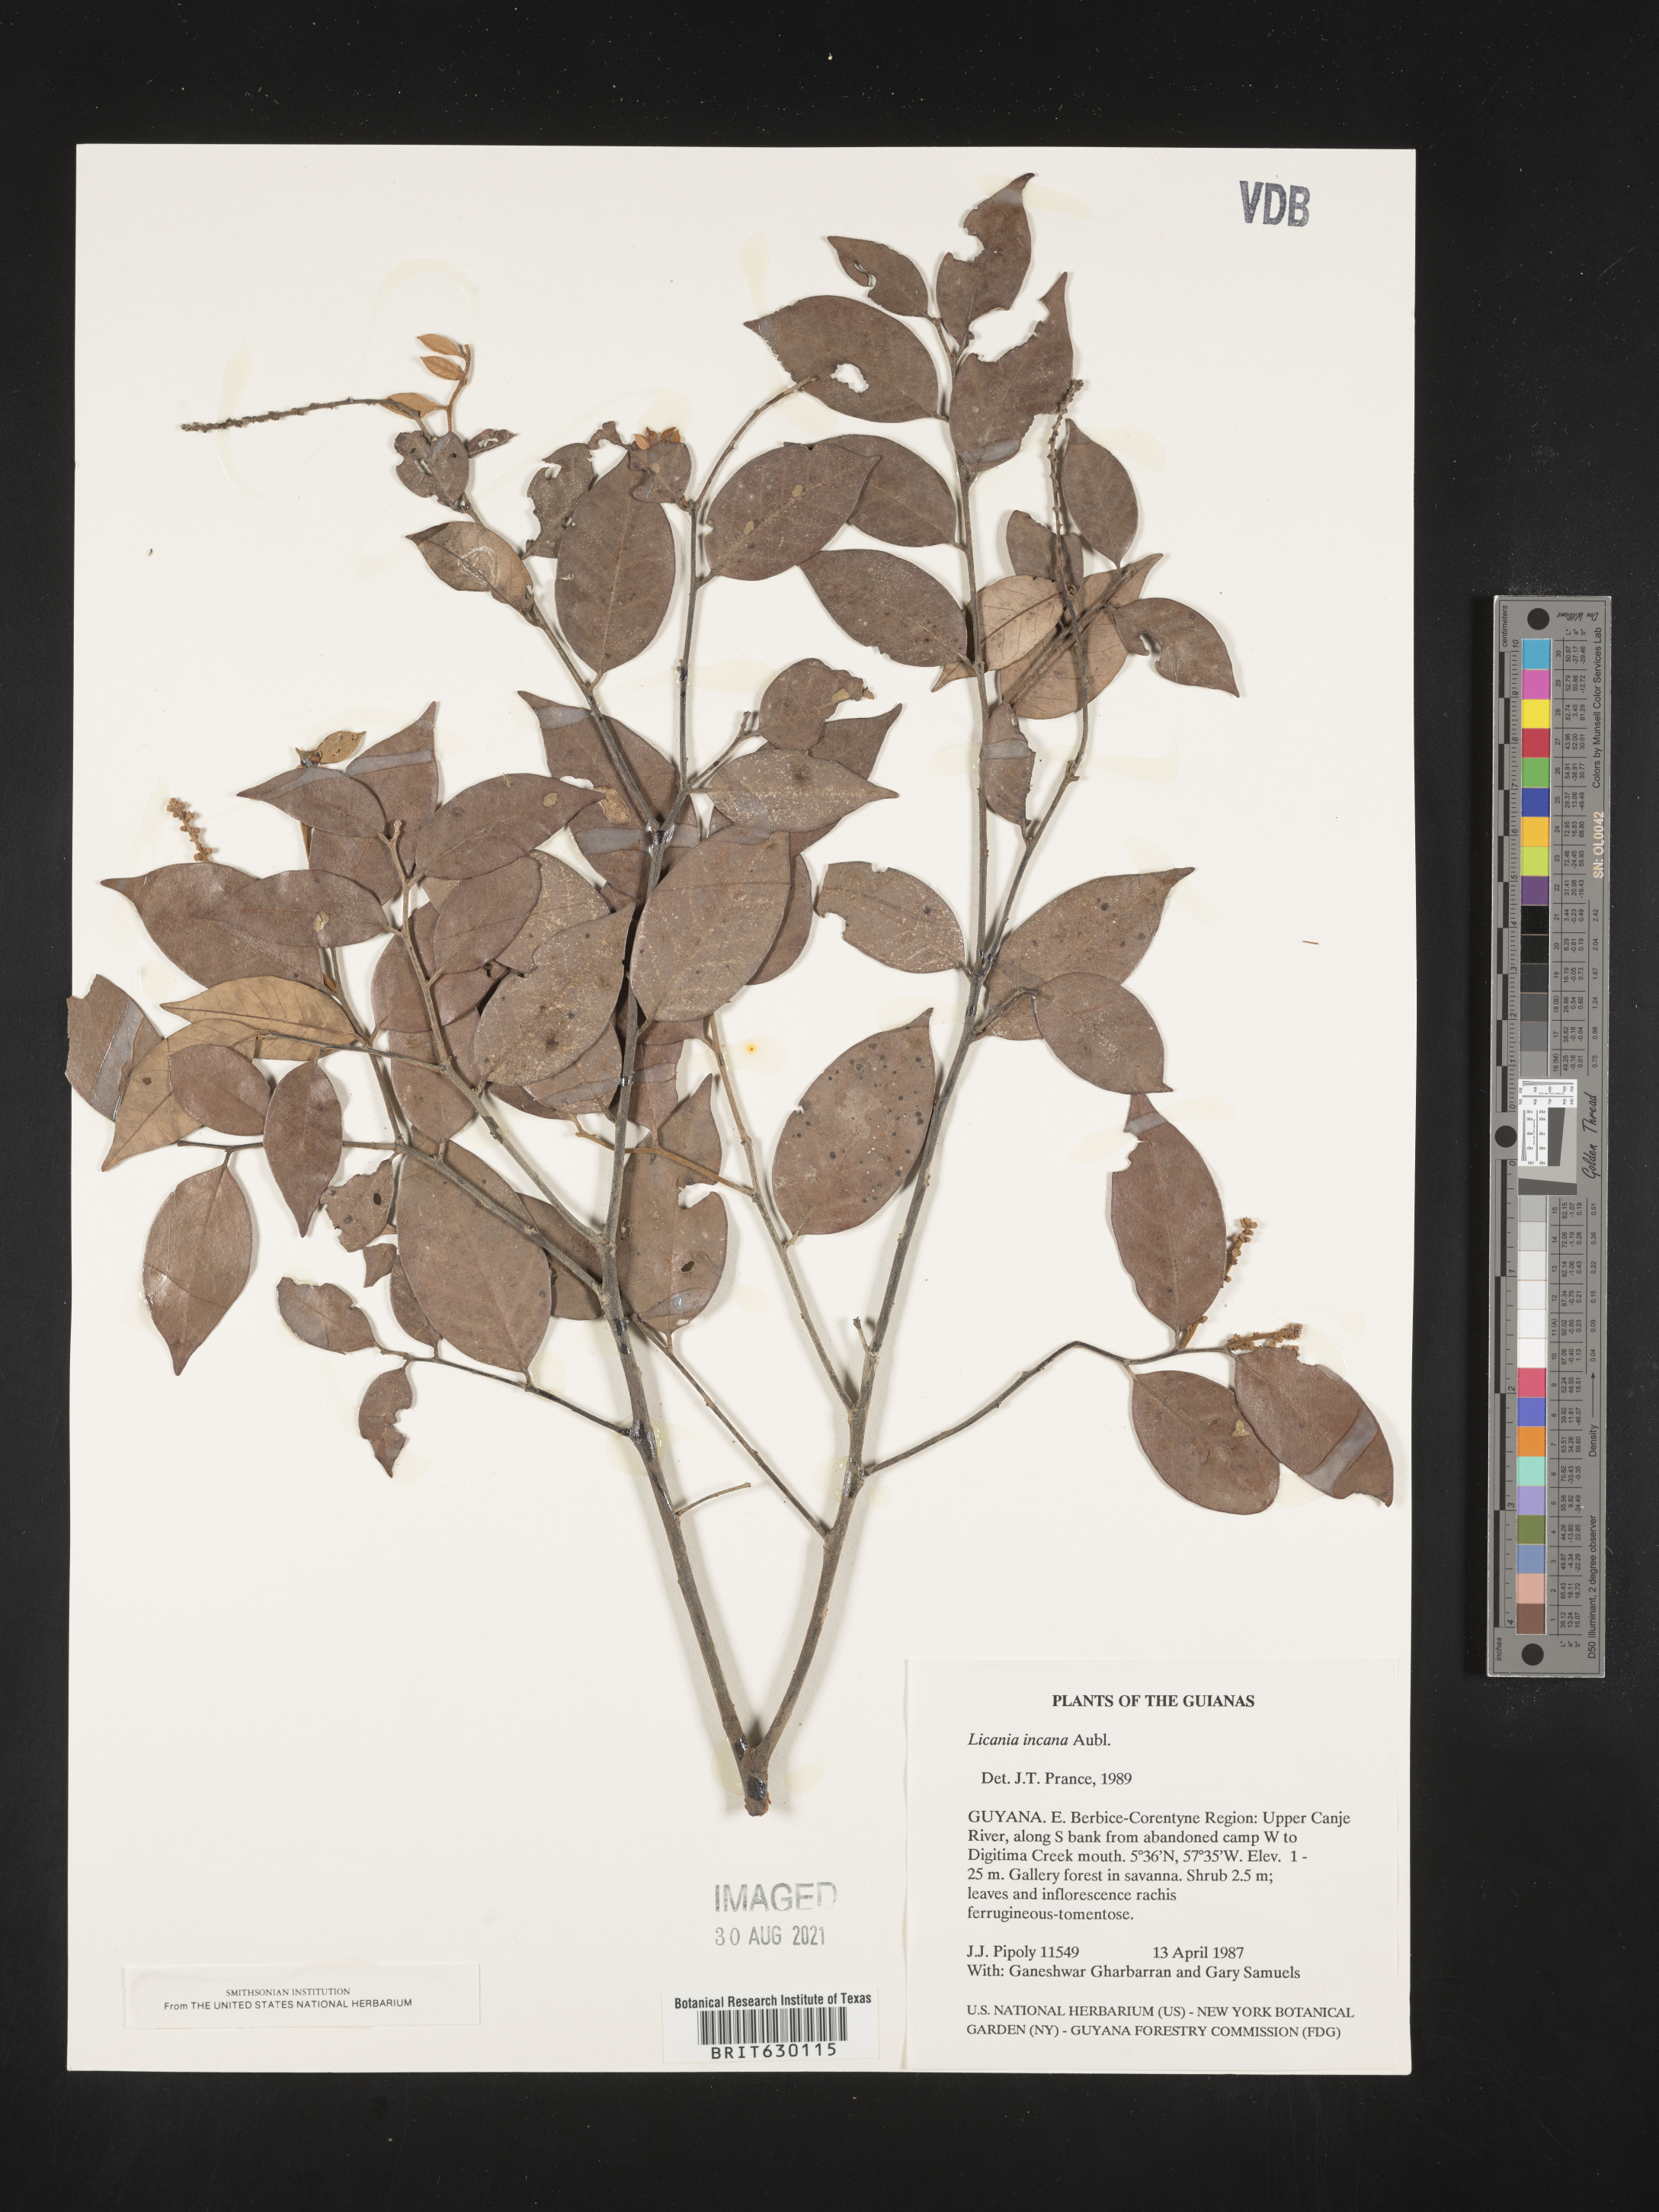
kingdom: Plantae
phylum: Tracheophyta
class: Magnoliopsida
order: Malpighiales
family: Chrysobalanaceae
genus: Licania
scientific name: Licania incana
